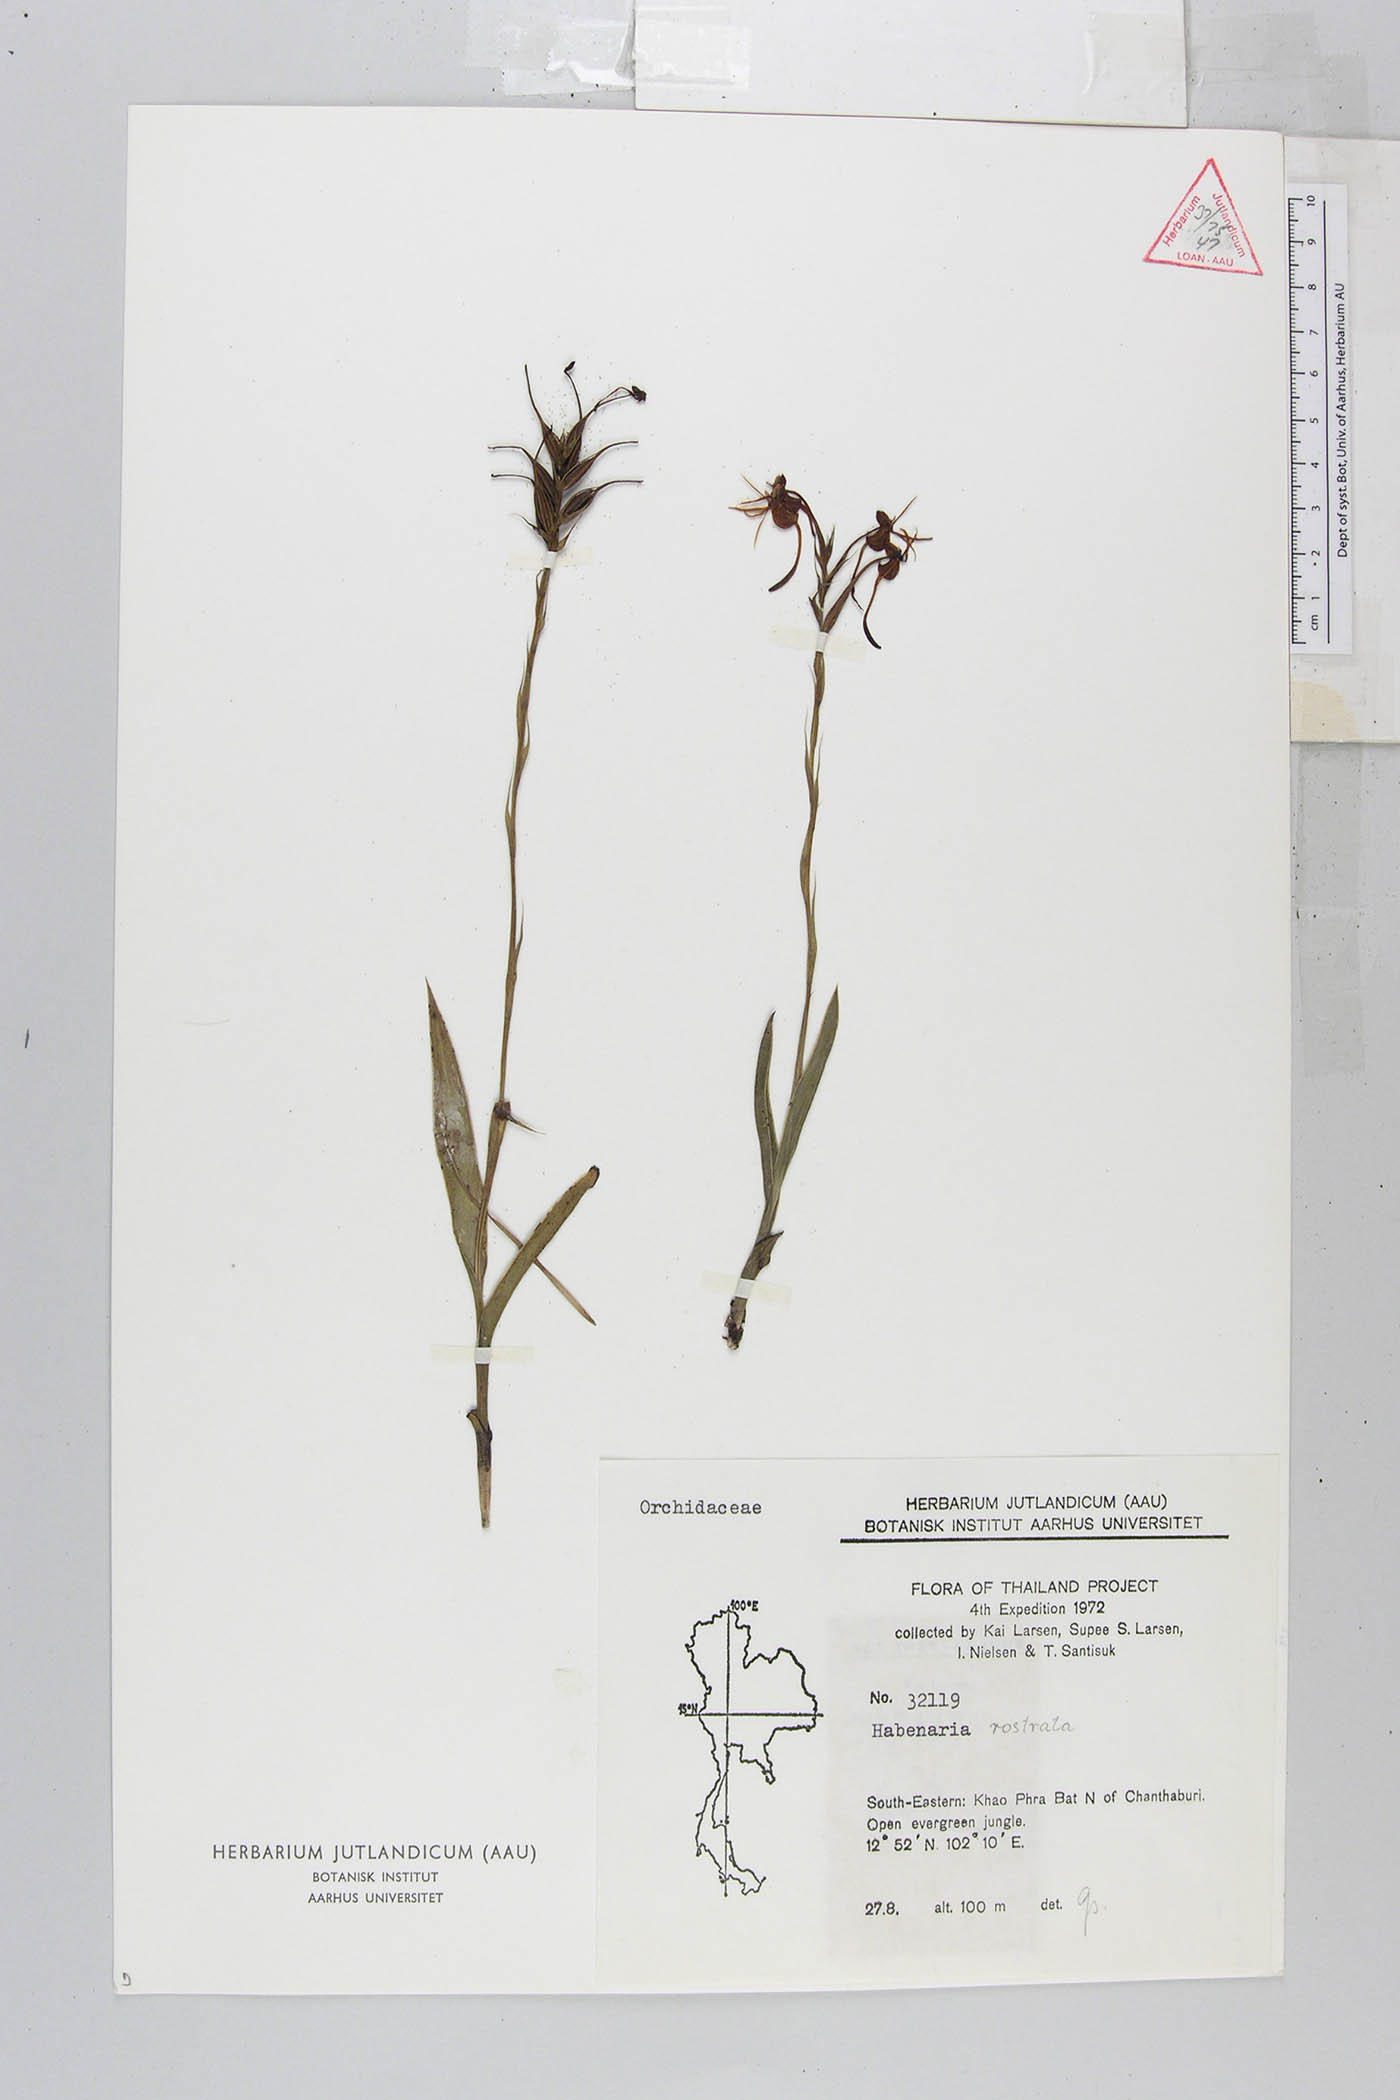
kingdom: Plantae
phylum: Tracheophyta
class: Liliopsida
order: Asparagales
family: Orchidaceae
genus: Habenaria
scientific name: Habenaria rostrata
